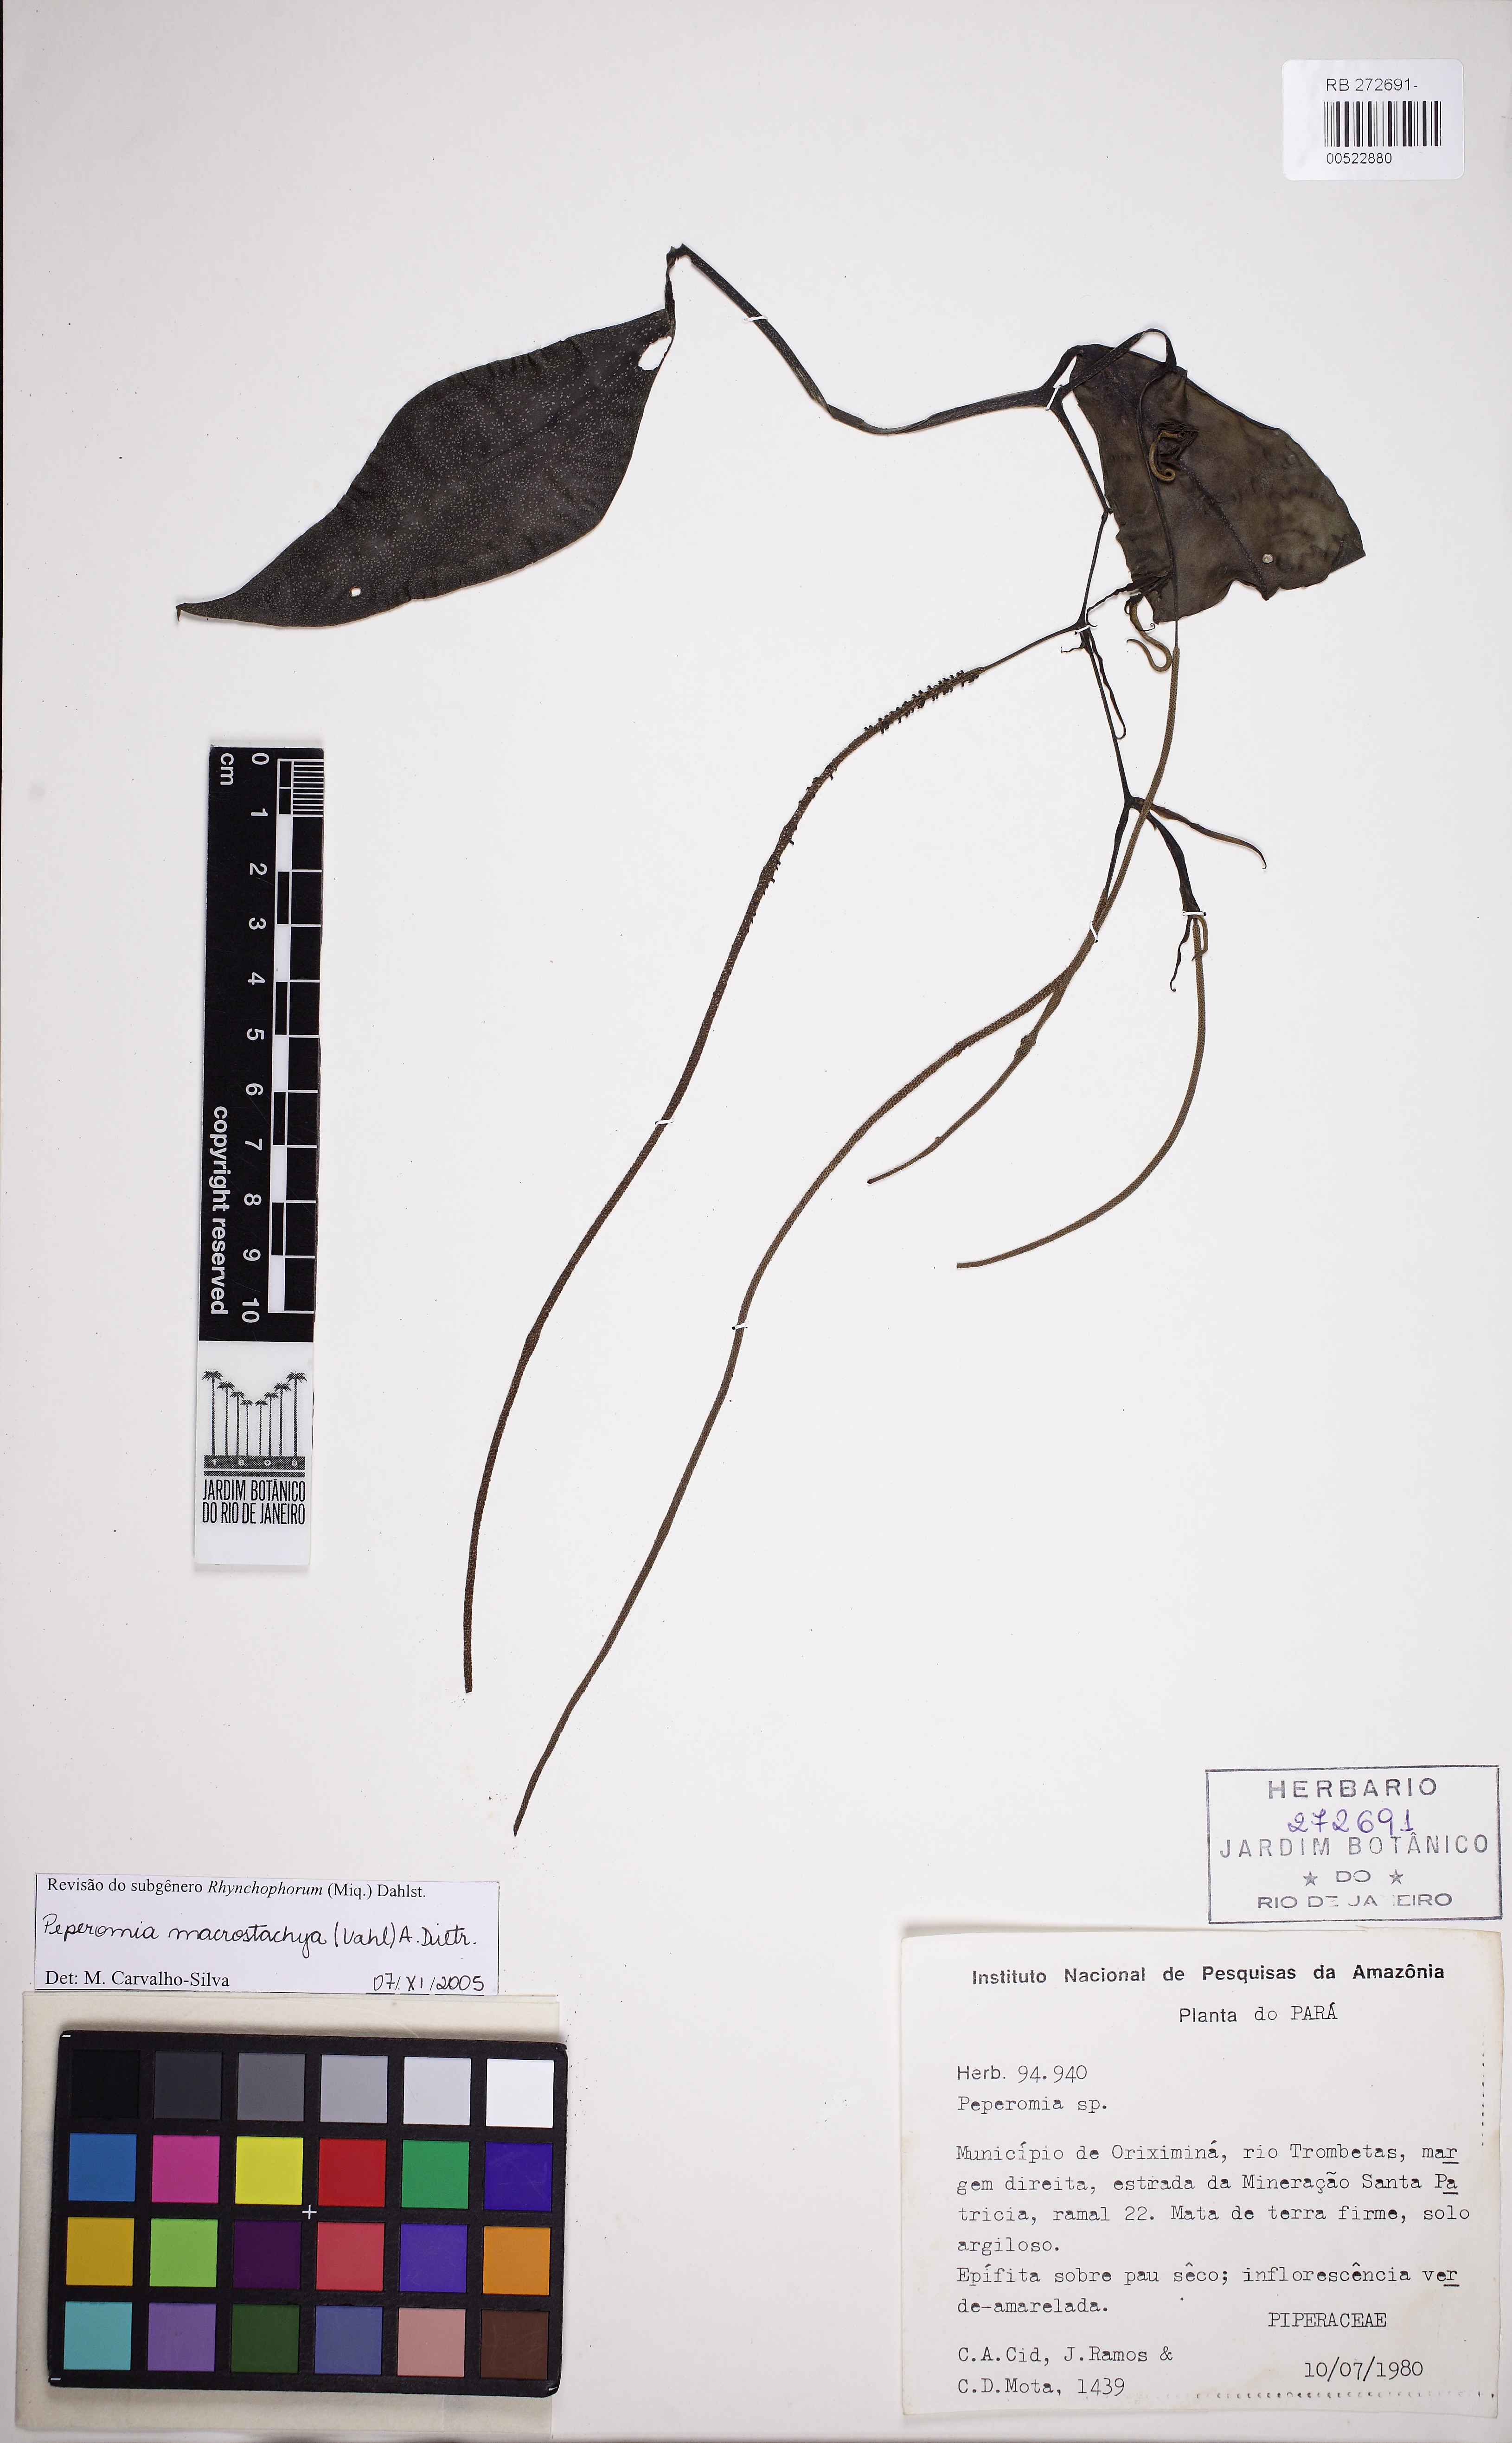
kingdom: Plantae
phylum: Tracheophyta
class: Magnoliopsida
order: Piperales
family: Piperaceae
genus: Peperomia
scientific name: Peperomia macrostachyos
